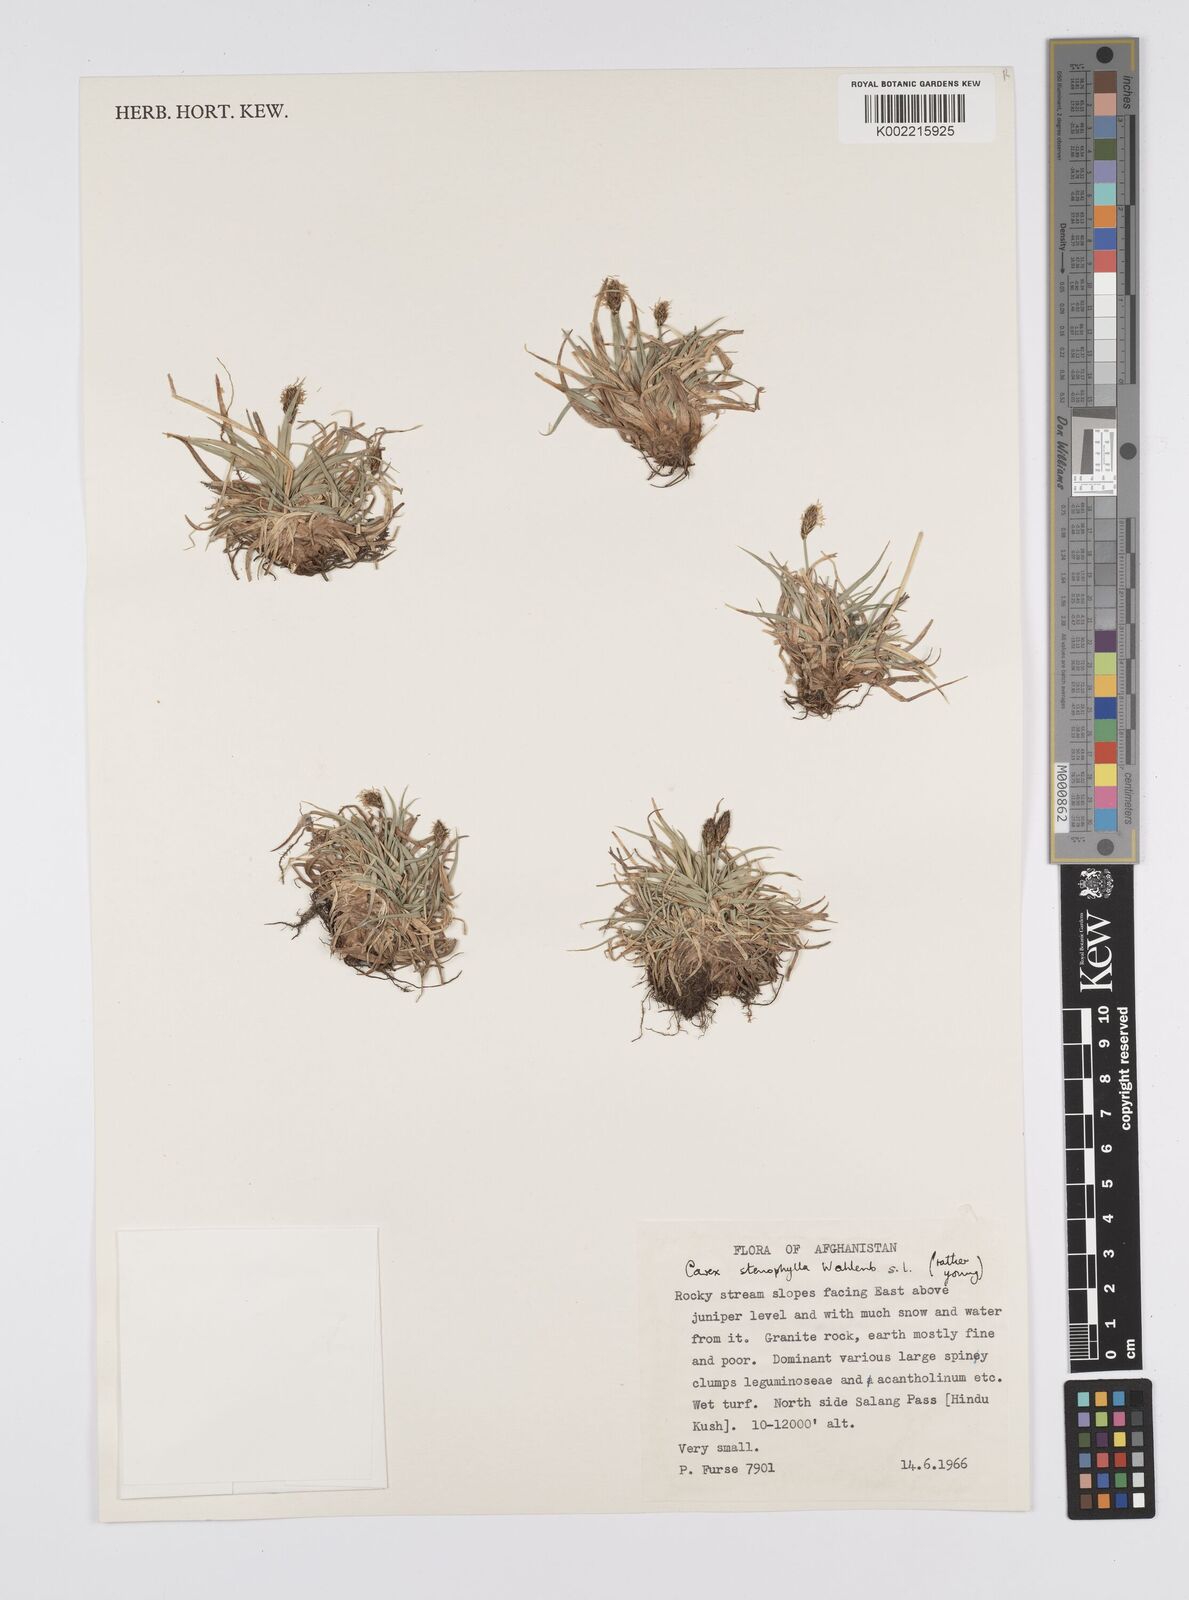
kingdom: Plantae
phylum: Tracheophyta
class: Liliopsida
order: Poales
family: Cyperaceae
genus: Carex
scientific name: Carex stenophylla
